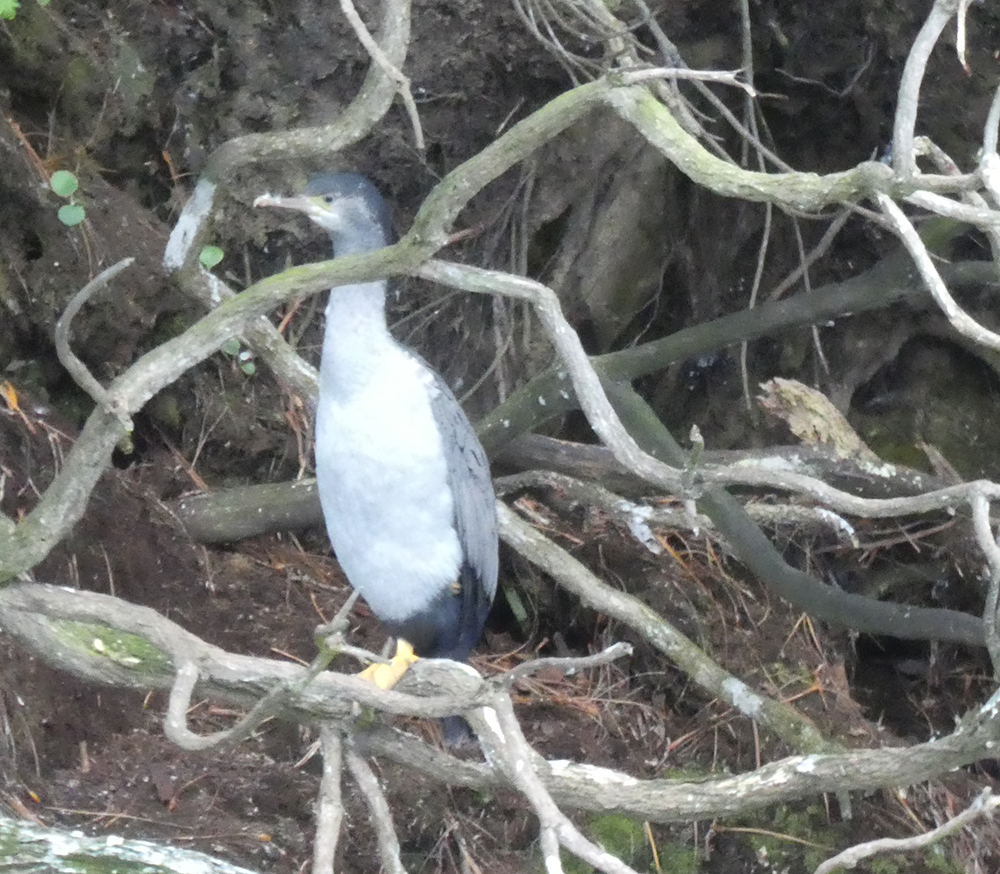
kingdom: Animalia
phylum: Chordata
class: Aves
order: Suliformes
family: Phalacrocoracidae
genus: Phalacrocorax
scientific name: Phalacrocorax varius
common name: Pied cormorant
